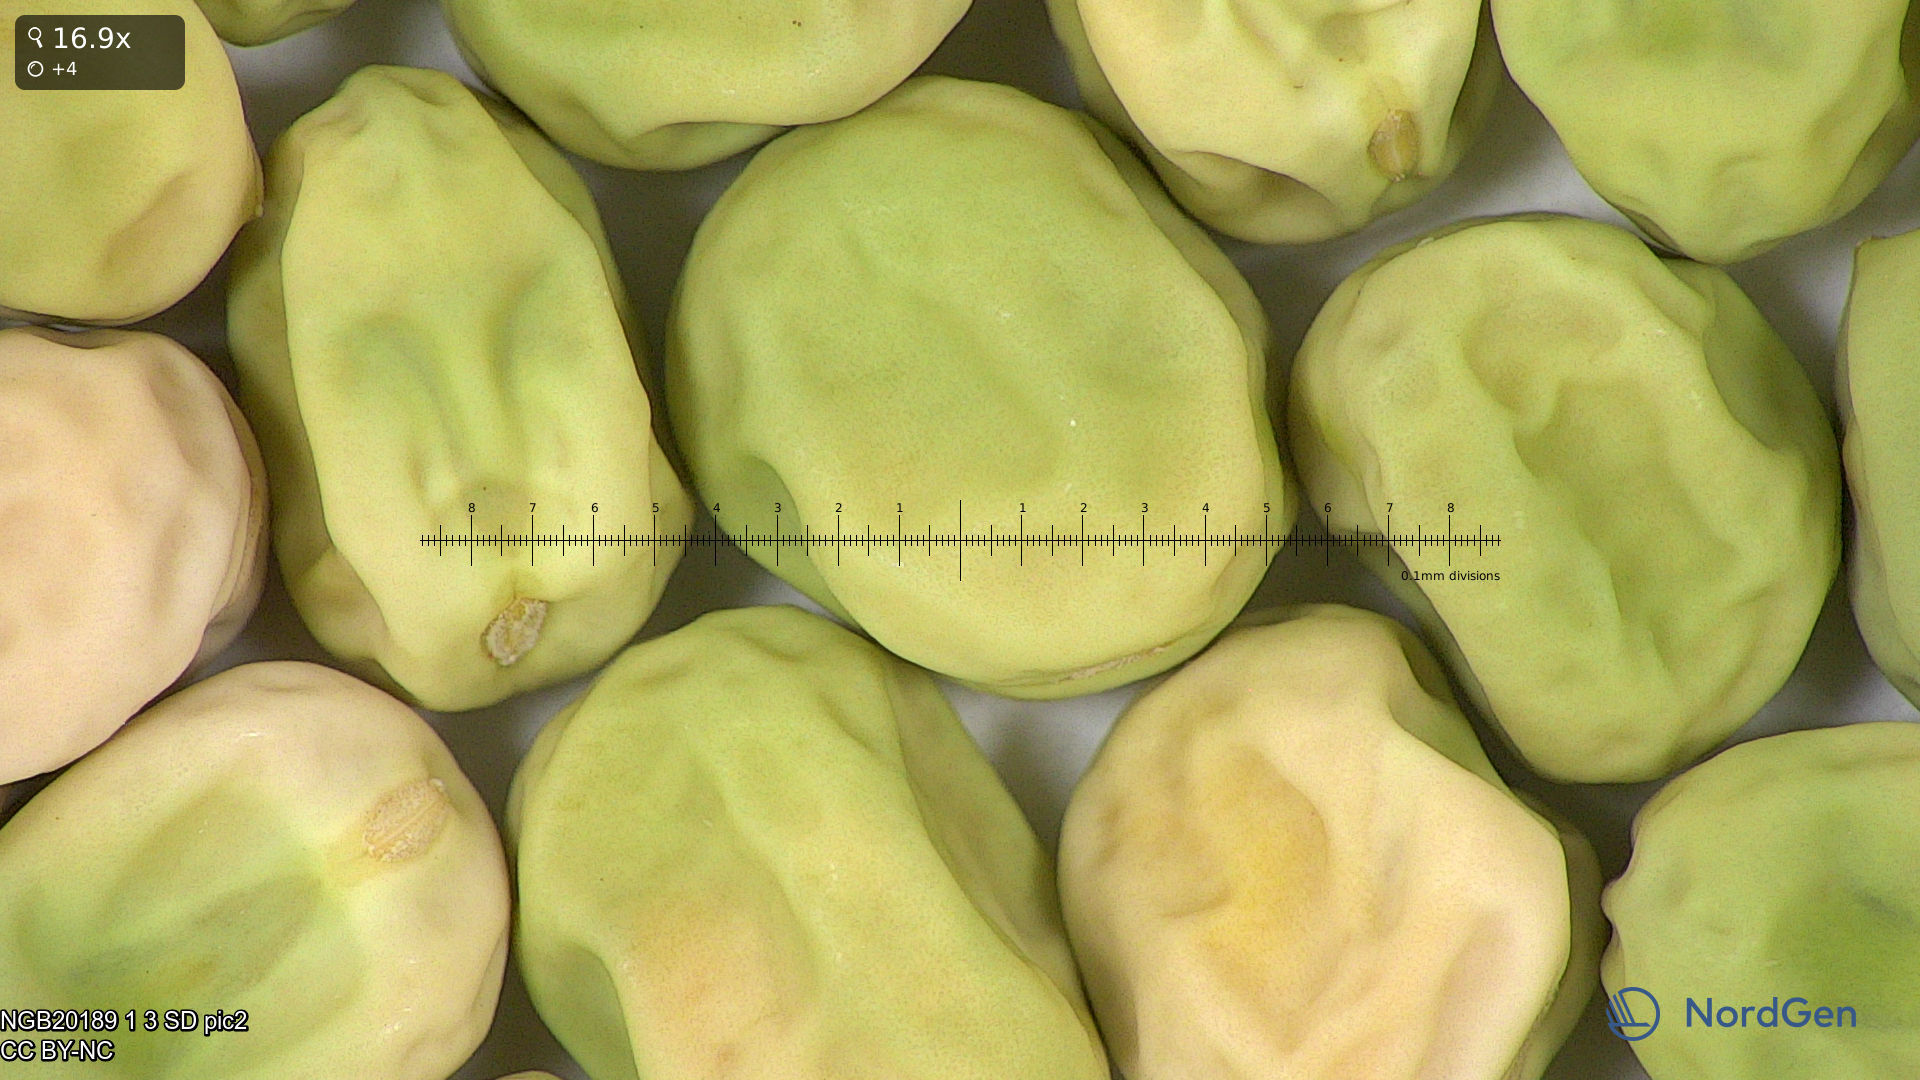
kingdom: Plantae
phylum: Tracheophyta
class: Magnoliopsida
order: Fabales
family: Fabaceae
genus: Lathyrus
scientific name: Lathyrus oleraceus
